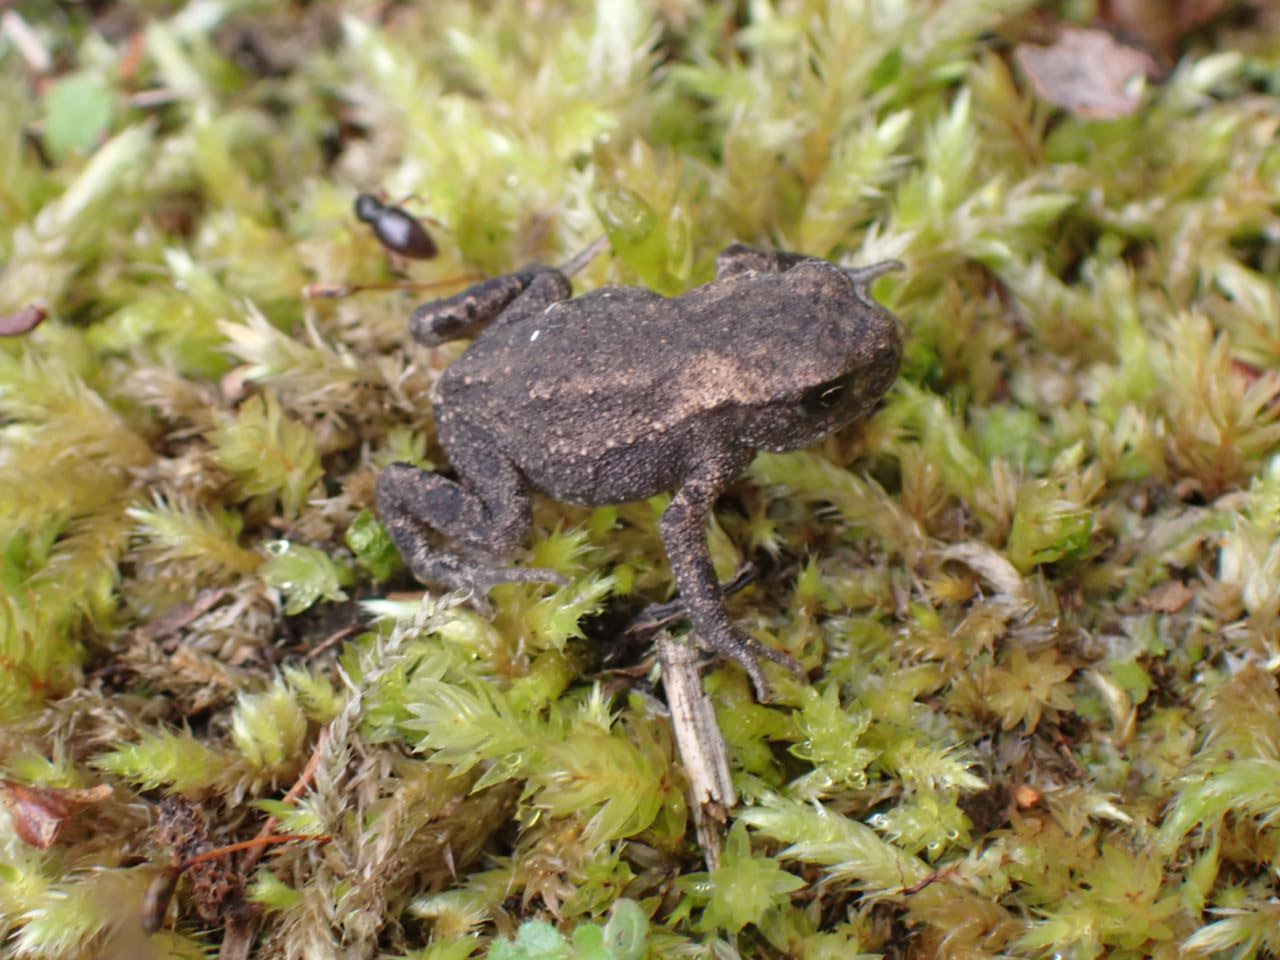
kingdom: Animalia
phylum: Chordata
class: Amphibia
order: Anura
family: Bufonidae
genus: Bufo
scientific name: Bufo bufo
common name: Skrubtudse
